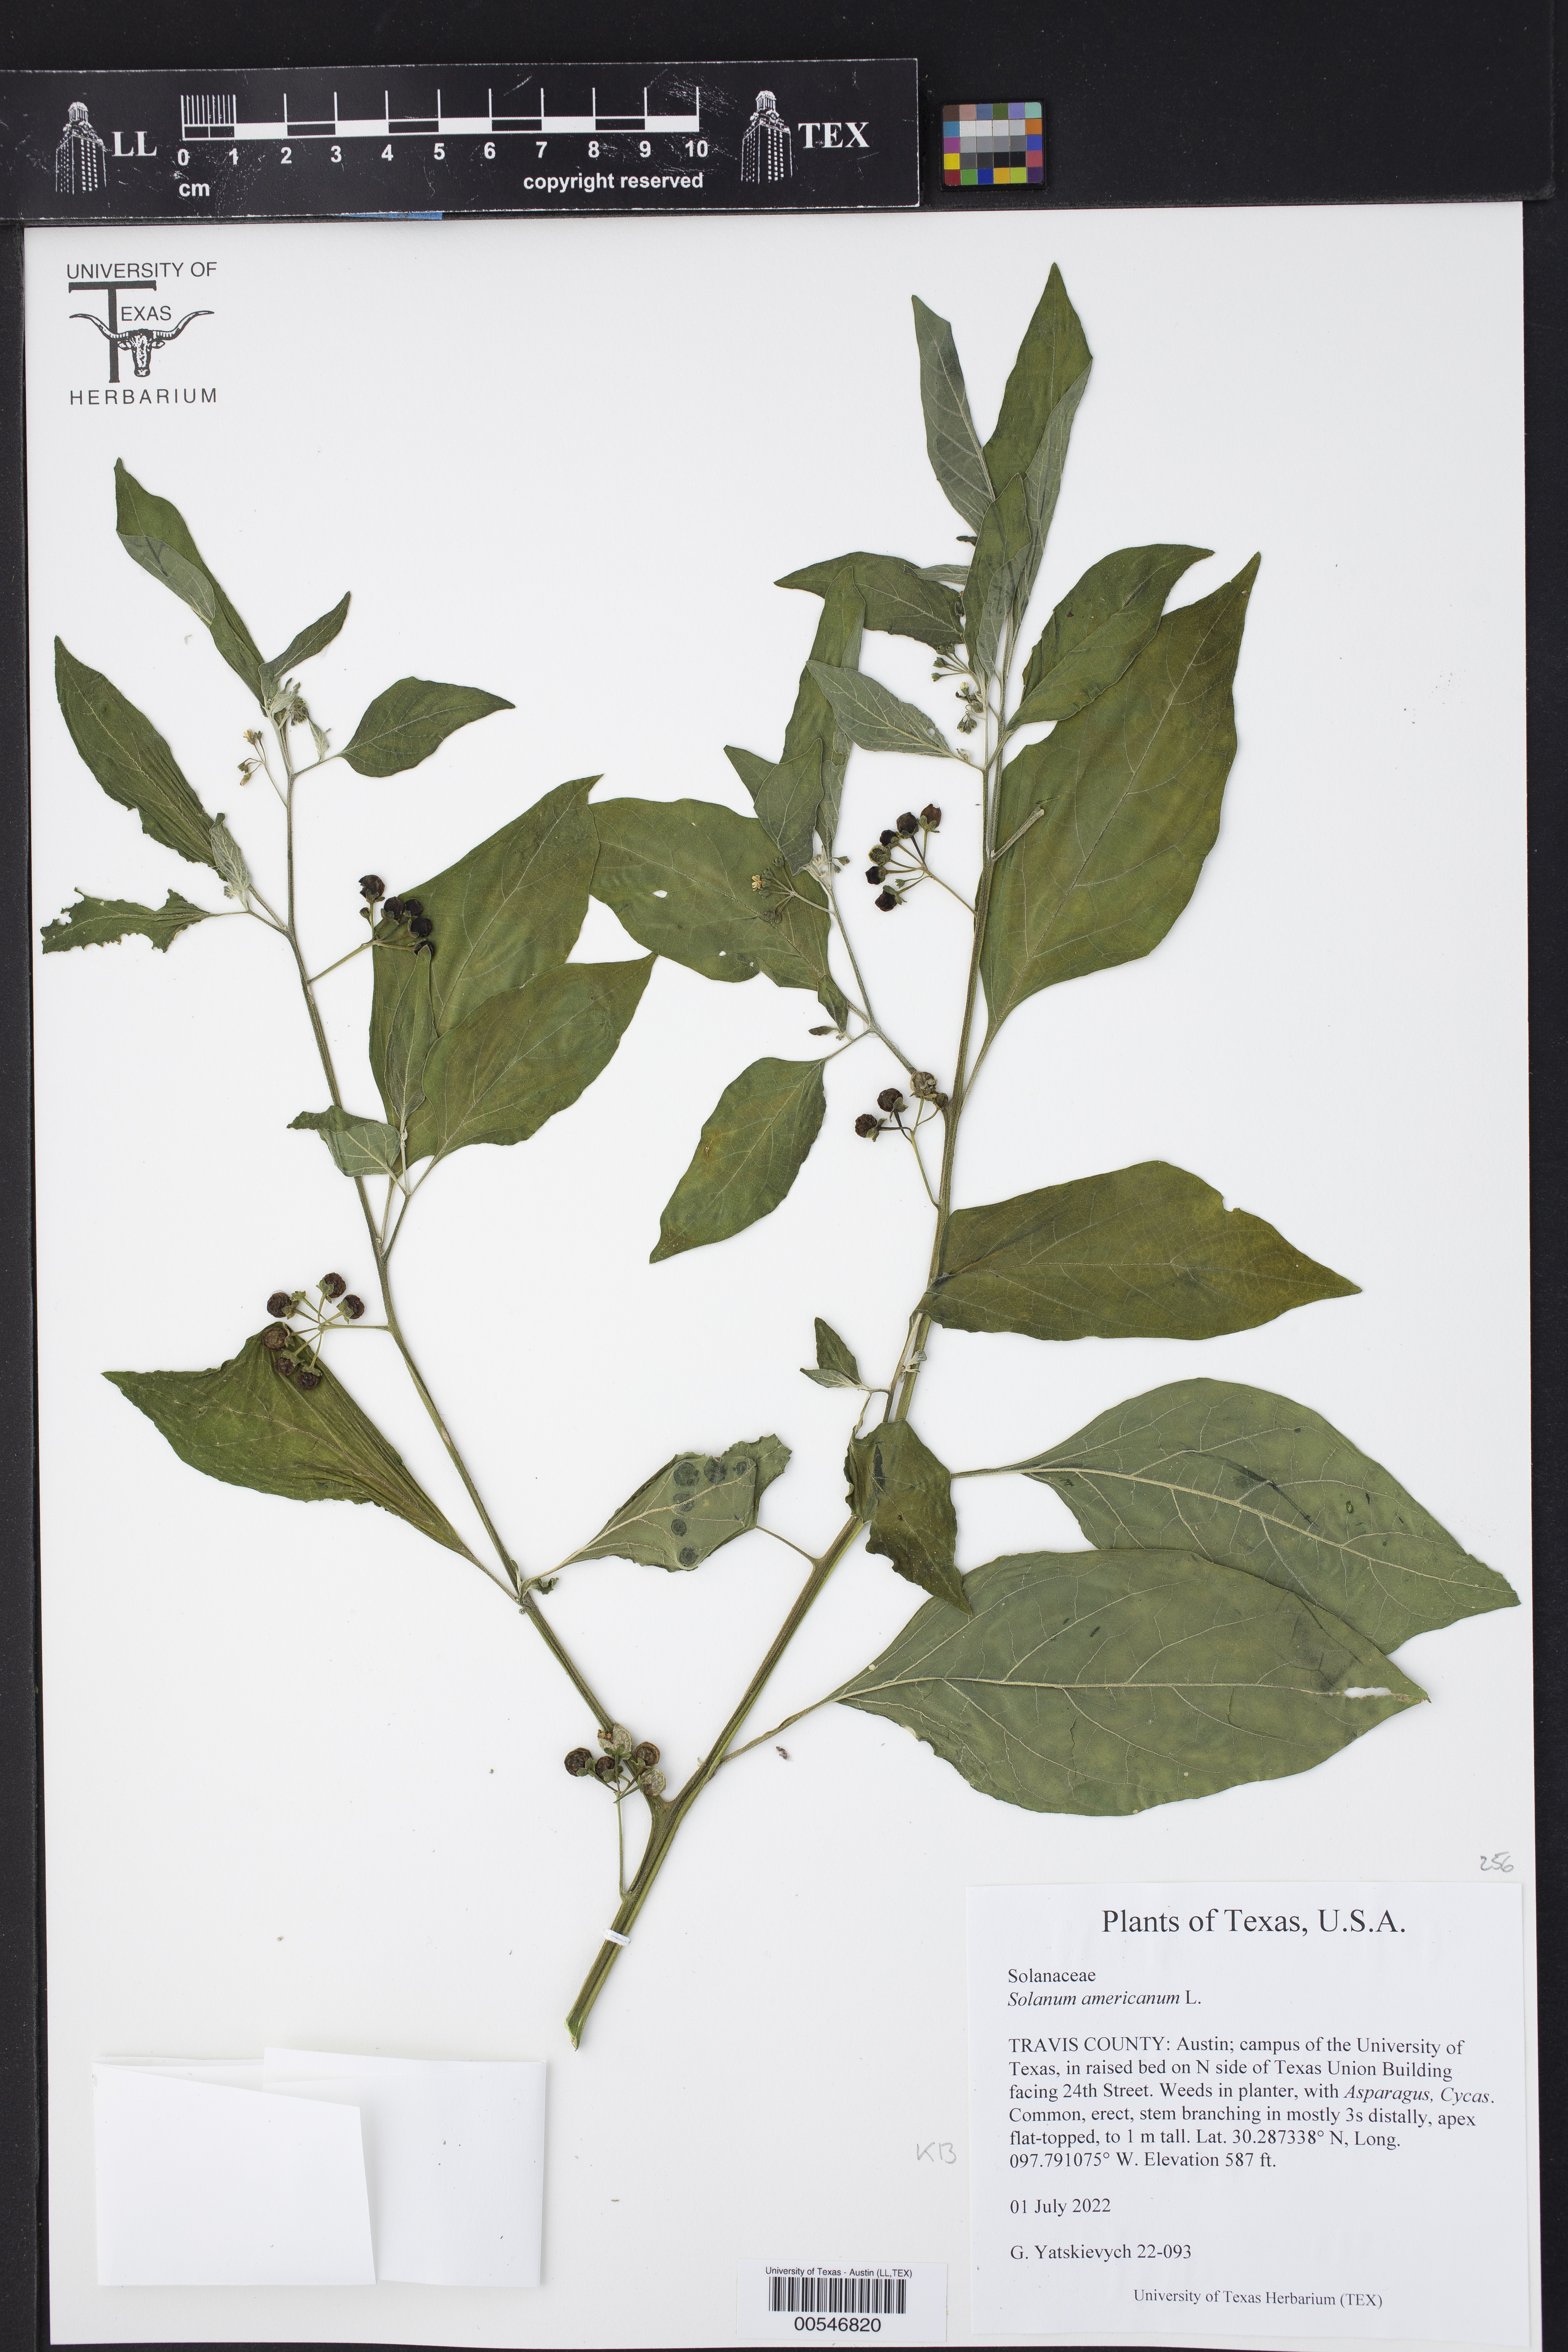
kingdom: Plantae
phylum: Tracheophyta
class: Magnoliopsida
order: Solanales
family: Solanaceae
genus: Solanum
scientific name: Solanum americanum
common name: American black nightshade
